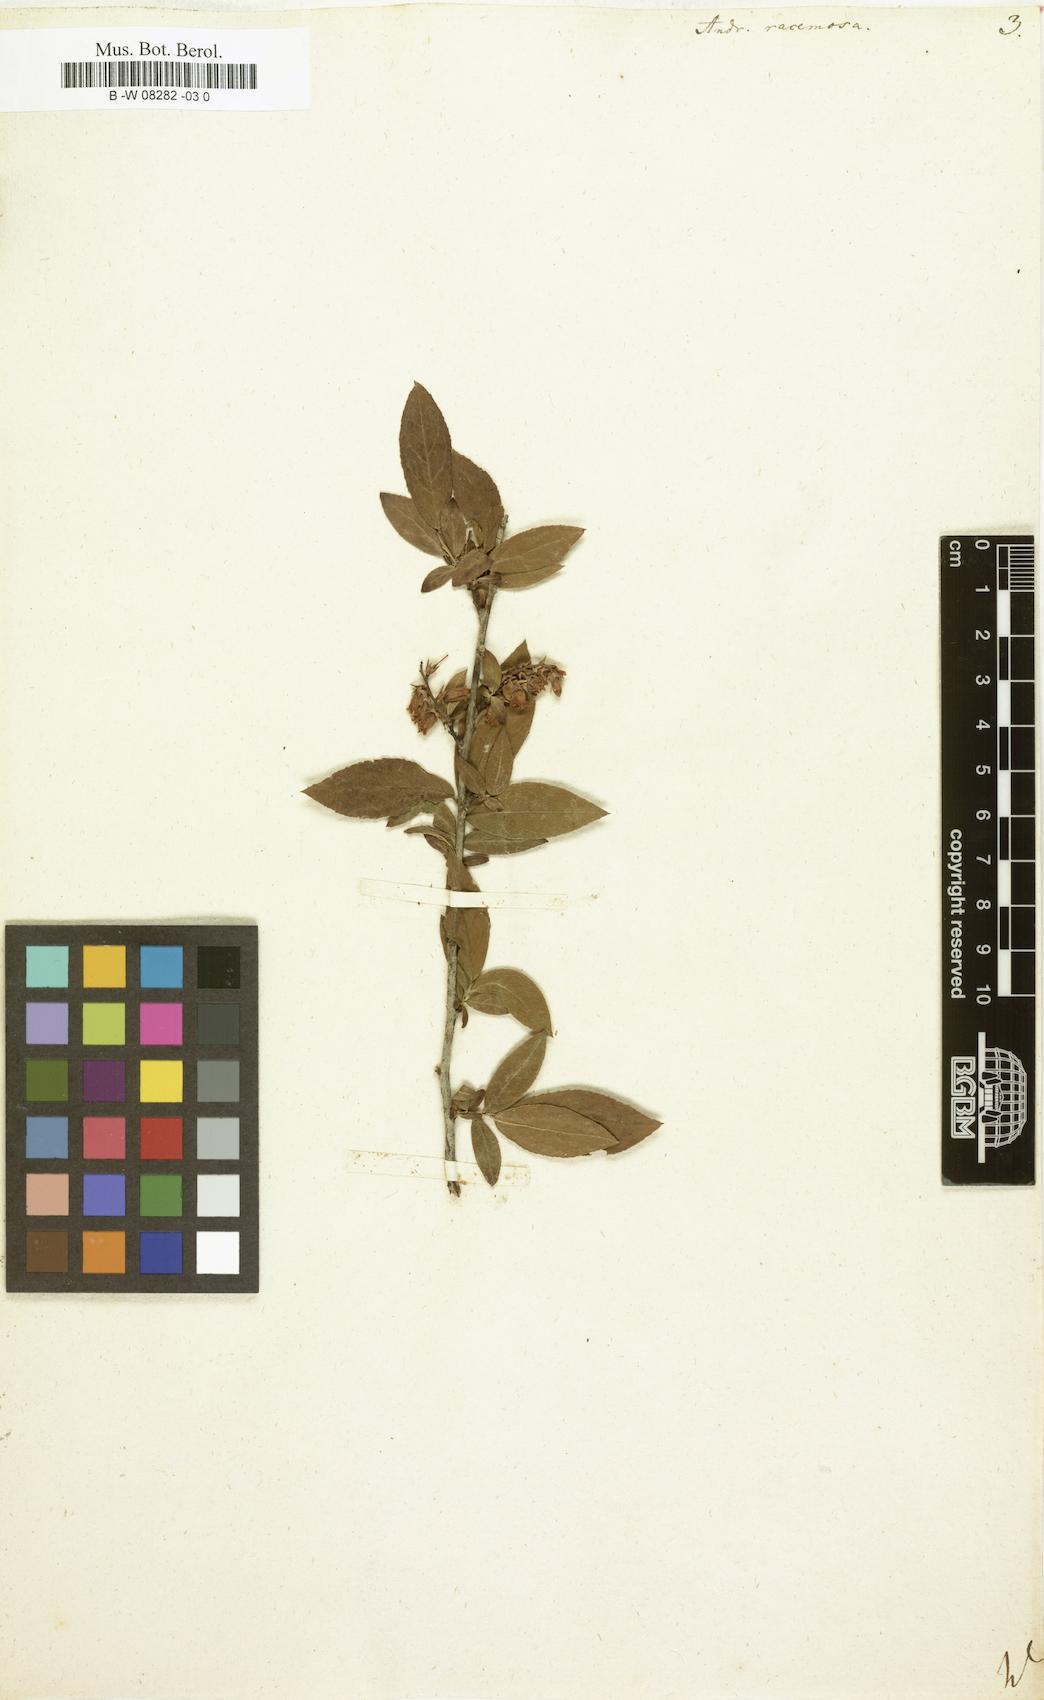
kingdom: Plantae
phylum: Tracheophyta
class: Magnoliopsida
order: Ericales
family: Ericaceae
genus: Eubotrys
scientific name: Eubotrys racemosa
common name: Fetterbush
